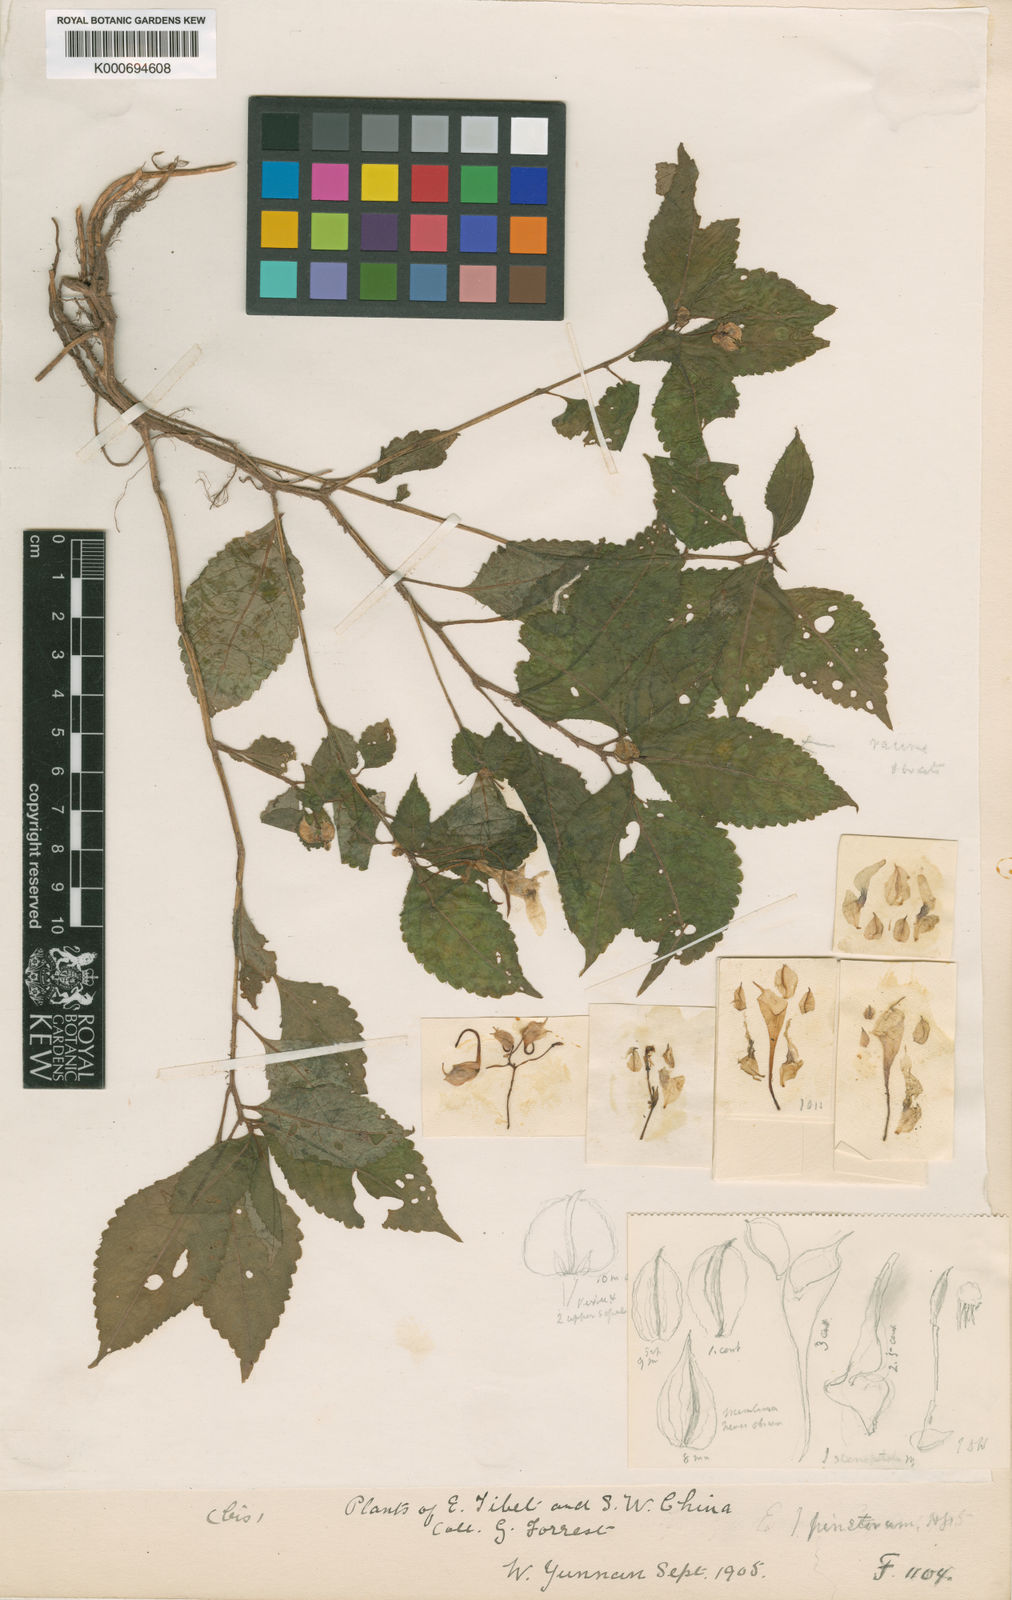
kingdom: Plantae
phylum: Tracheophyta
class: Magnoliopsida
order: Ericales
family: Balsaminaceae
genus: Impatiens
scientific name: Impatiens pinetorum
